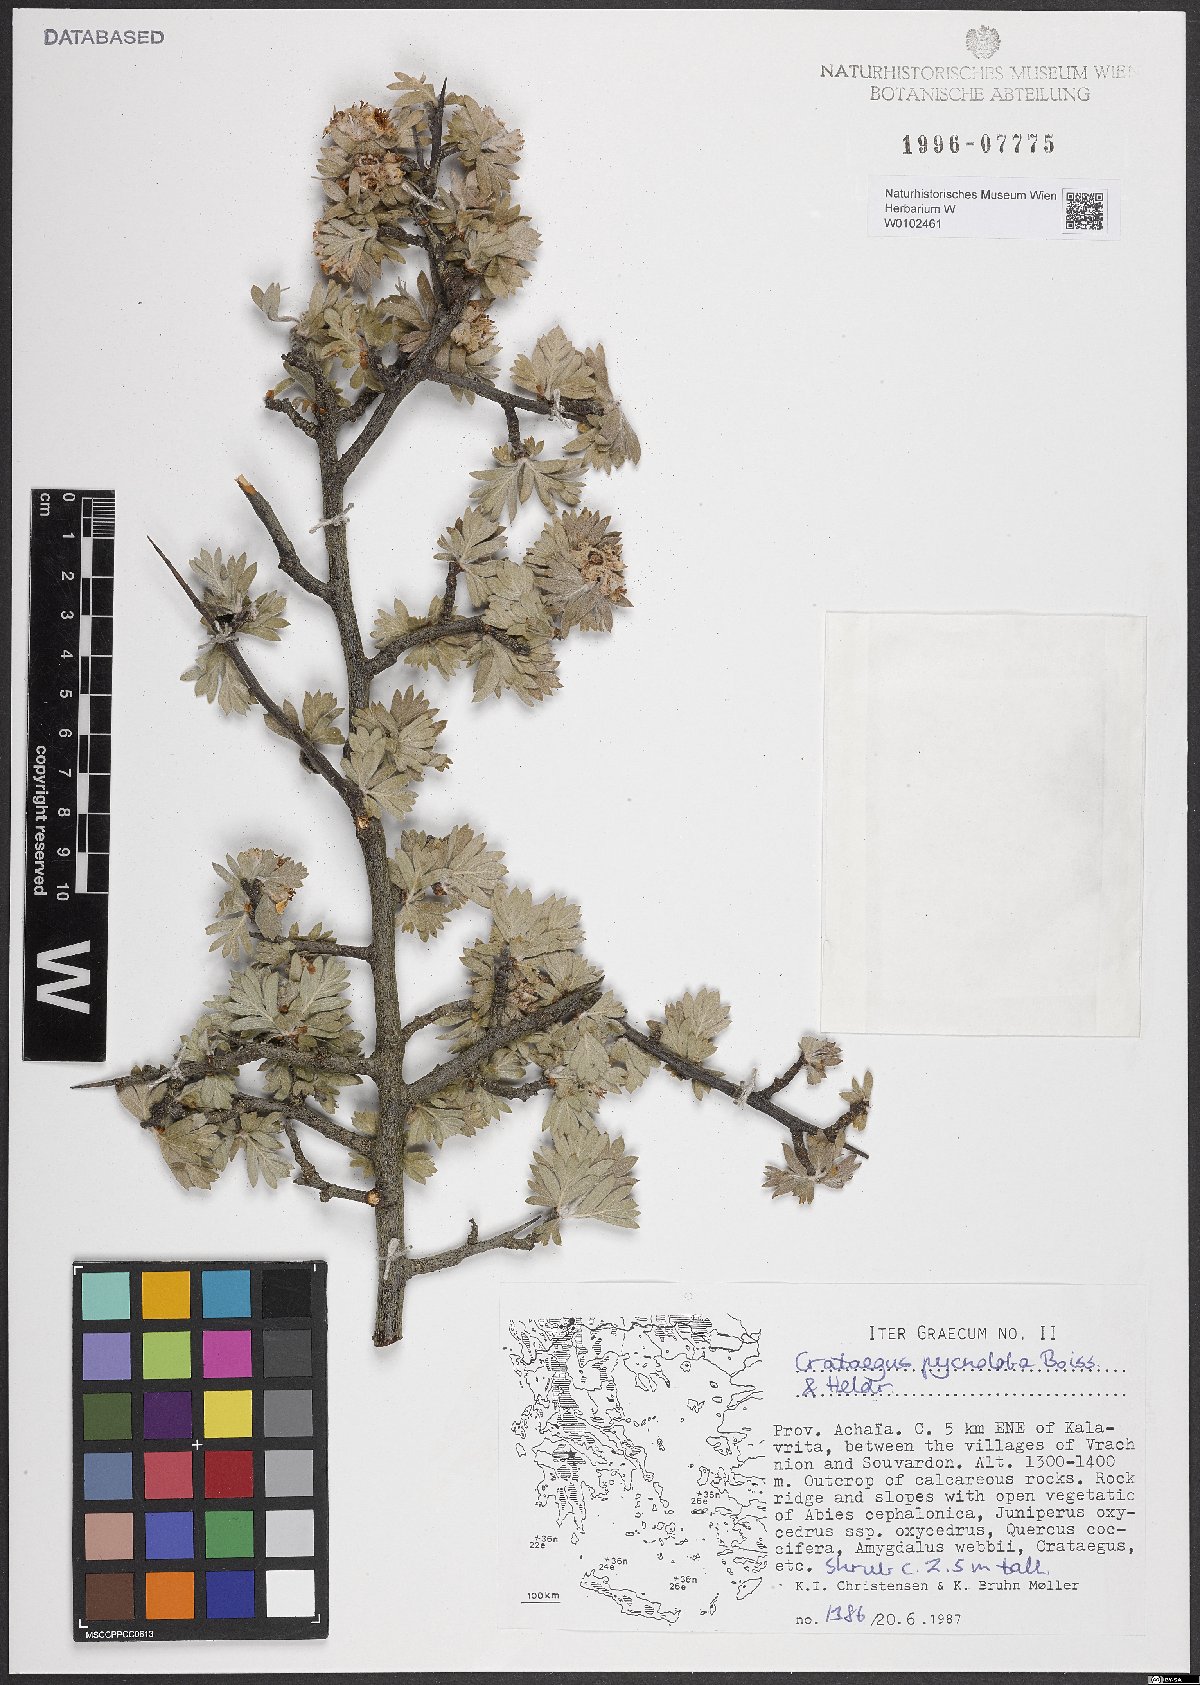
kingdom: Plantae
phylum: Tracheophyta
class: Magnoliopsida
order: Rosales
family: Rosaceae
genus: Crataegus
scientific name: Crataegus pycnoloba
